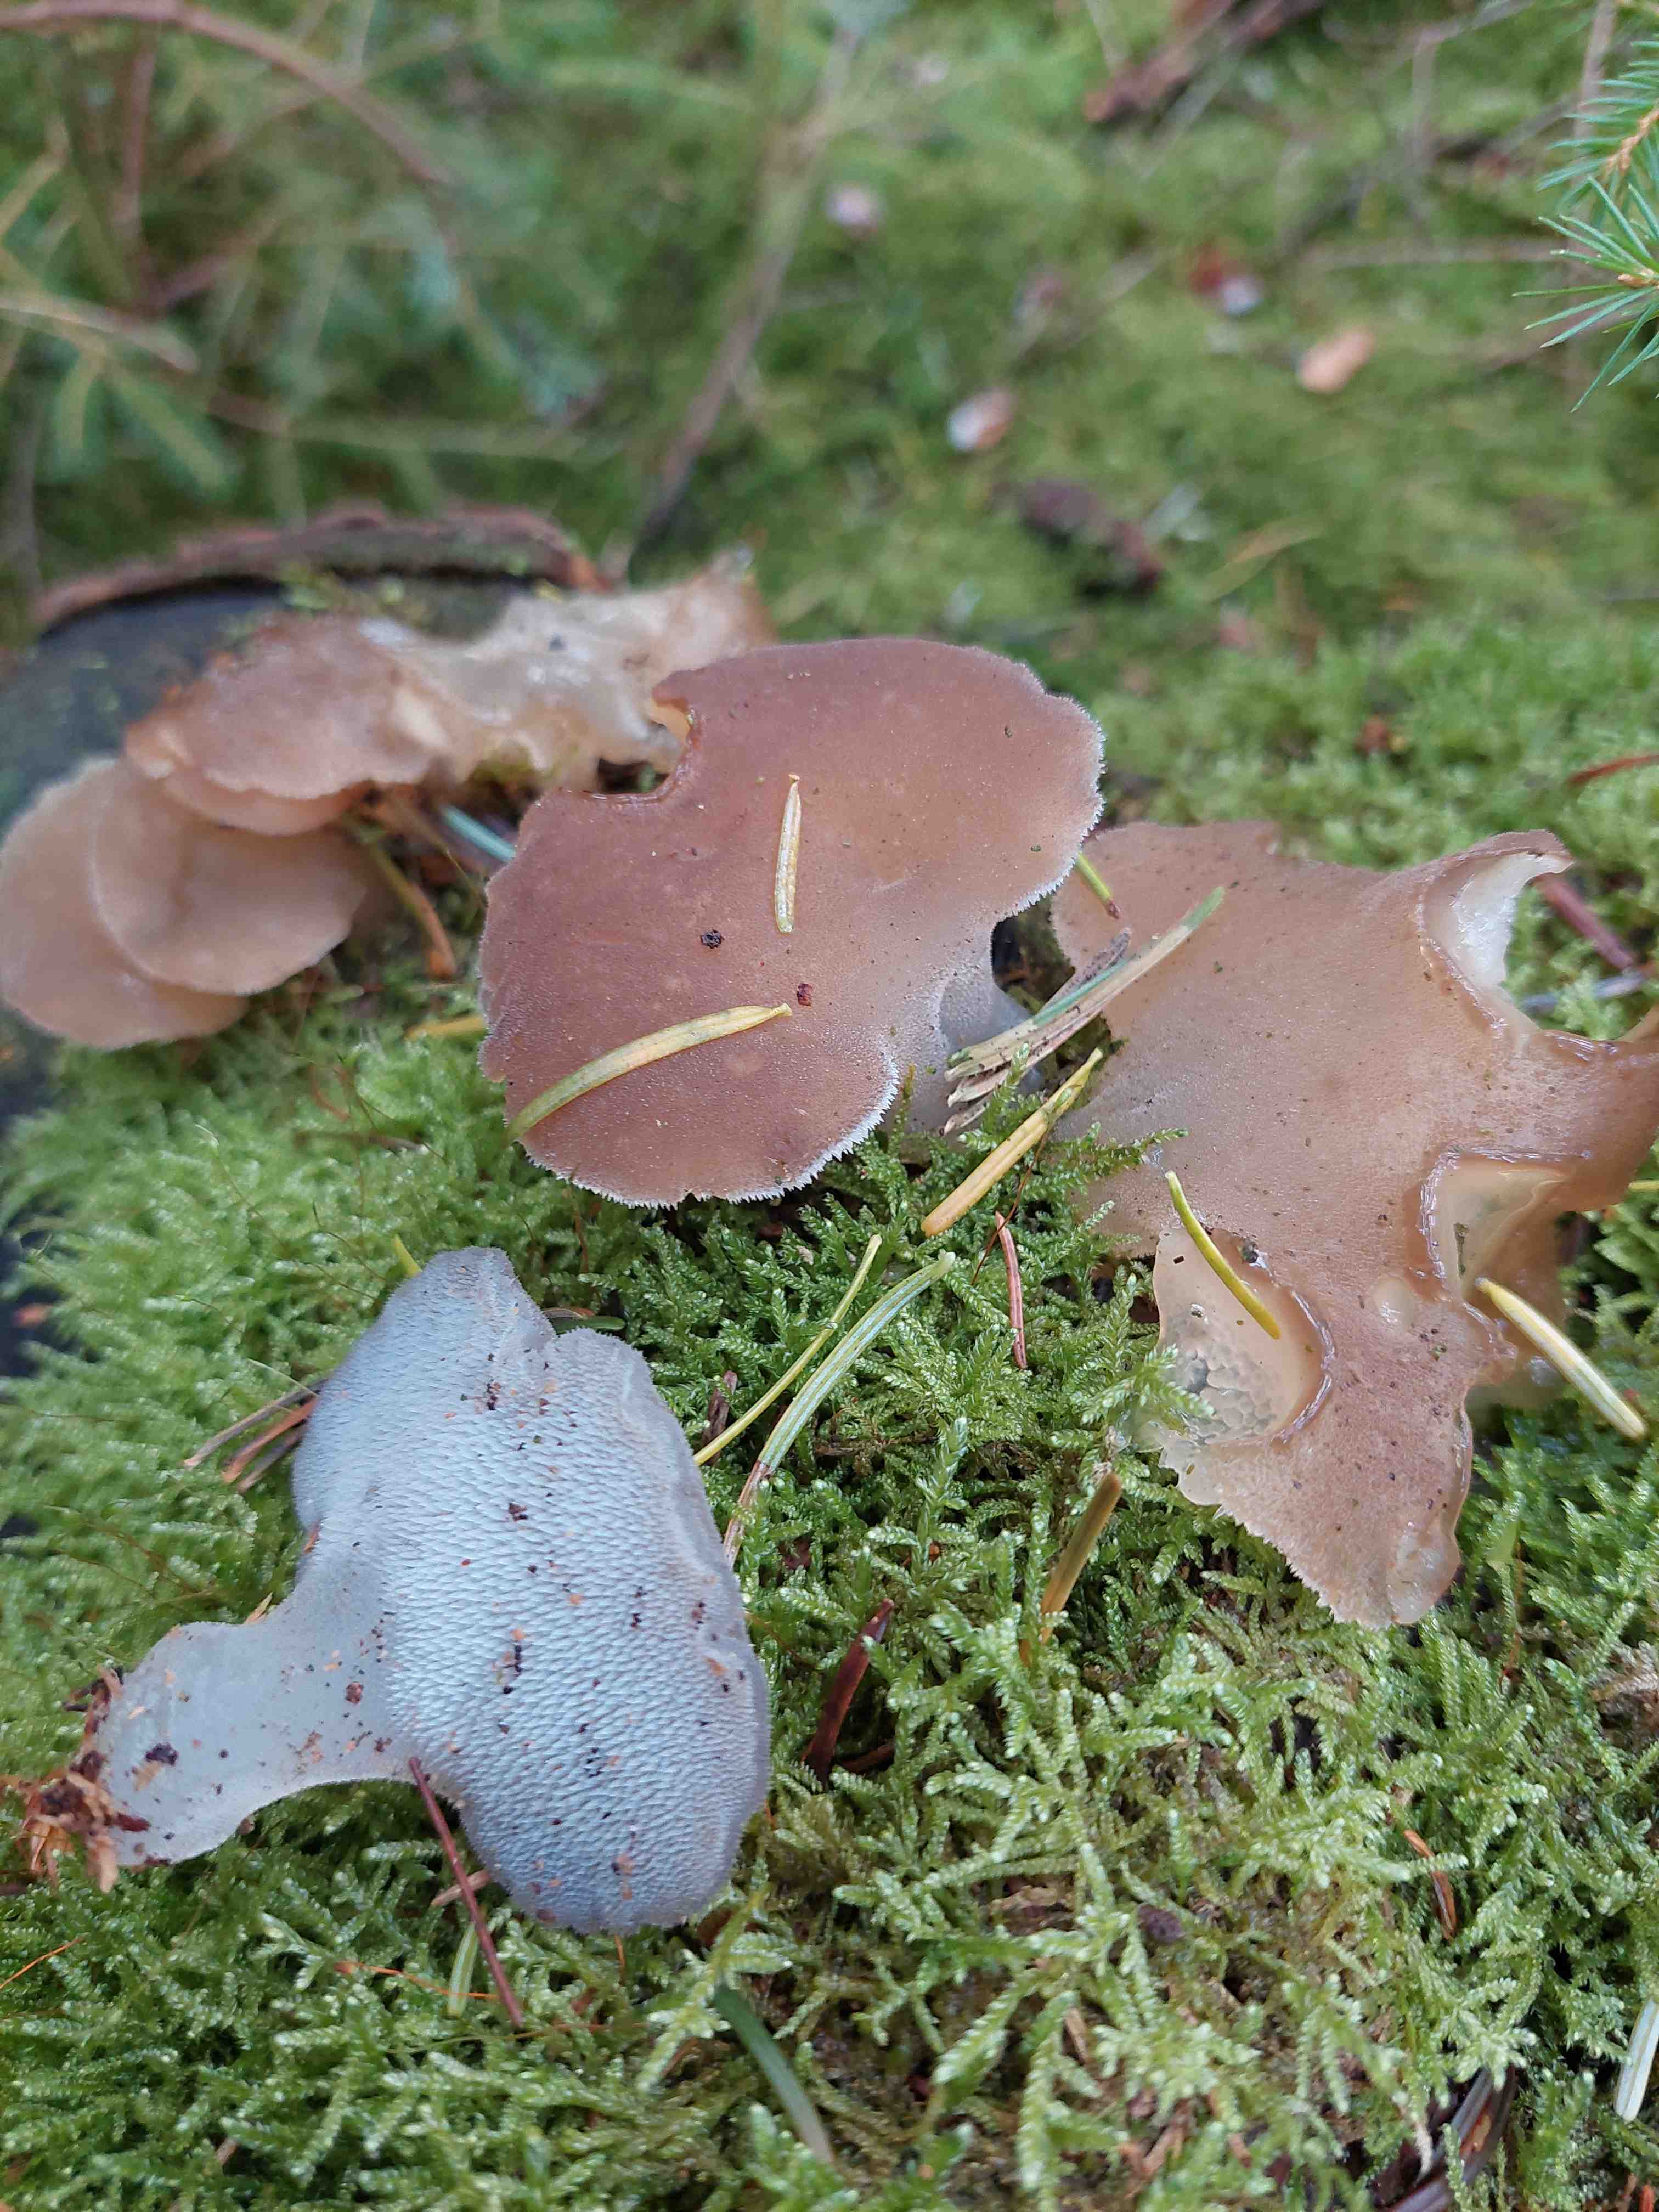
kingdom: Fungi
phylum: Basidiomycota
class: Agaricomycetes
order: Auriculariales
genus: Pseudohydnum
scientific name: Pseudohydnum gelatinosum
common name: bævretand
